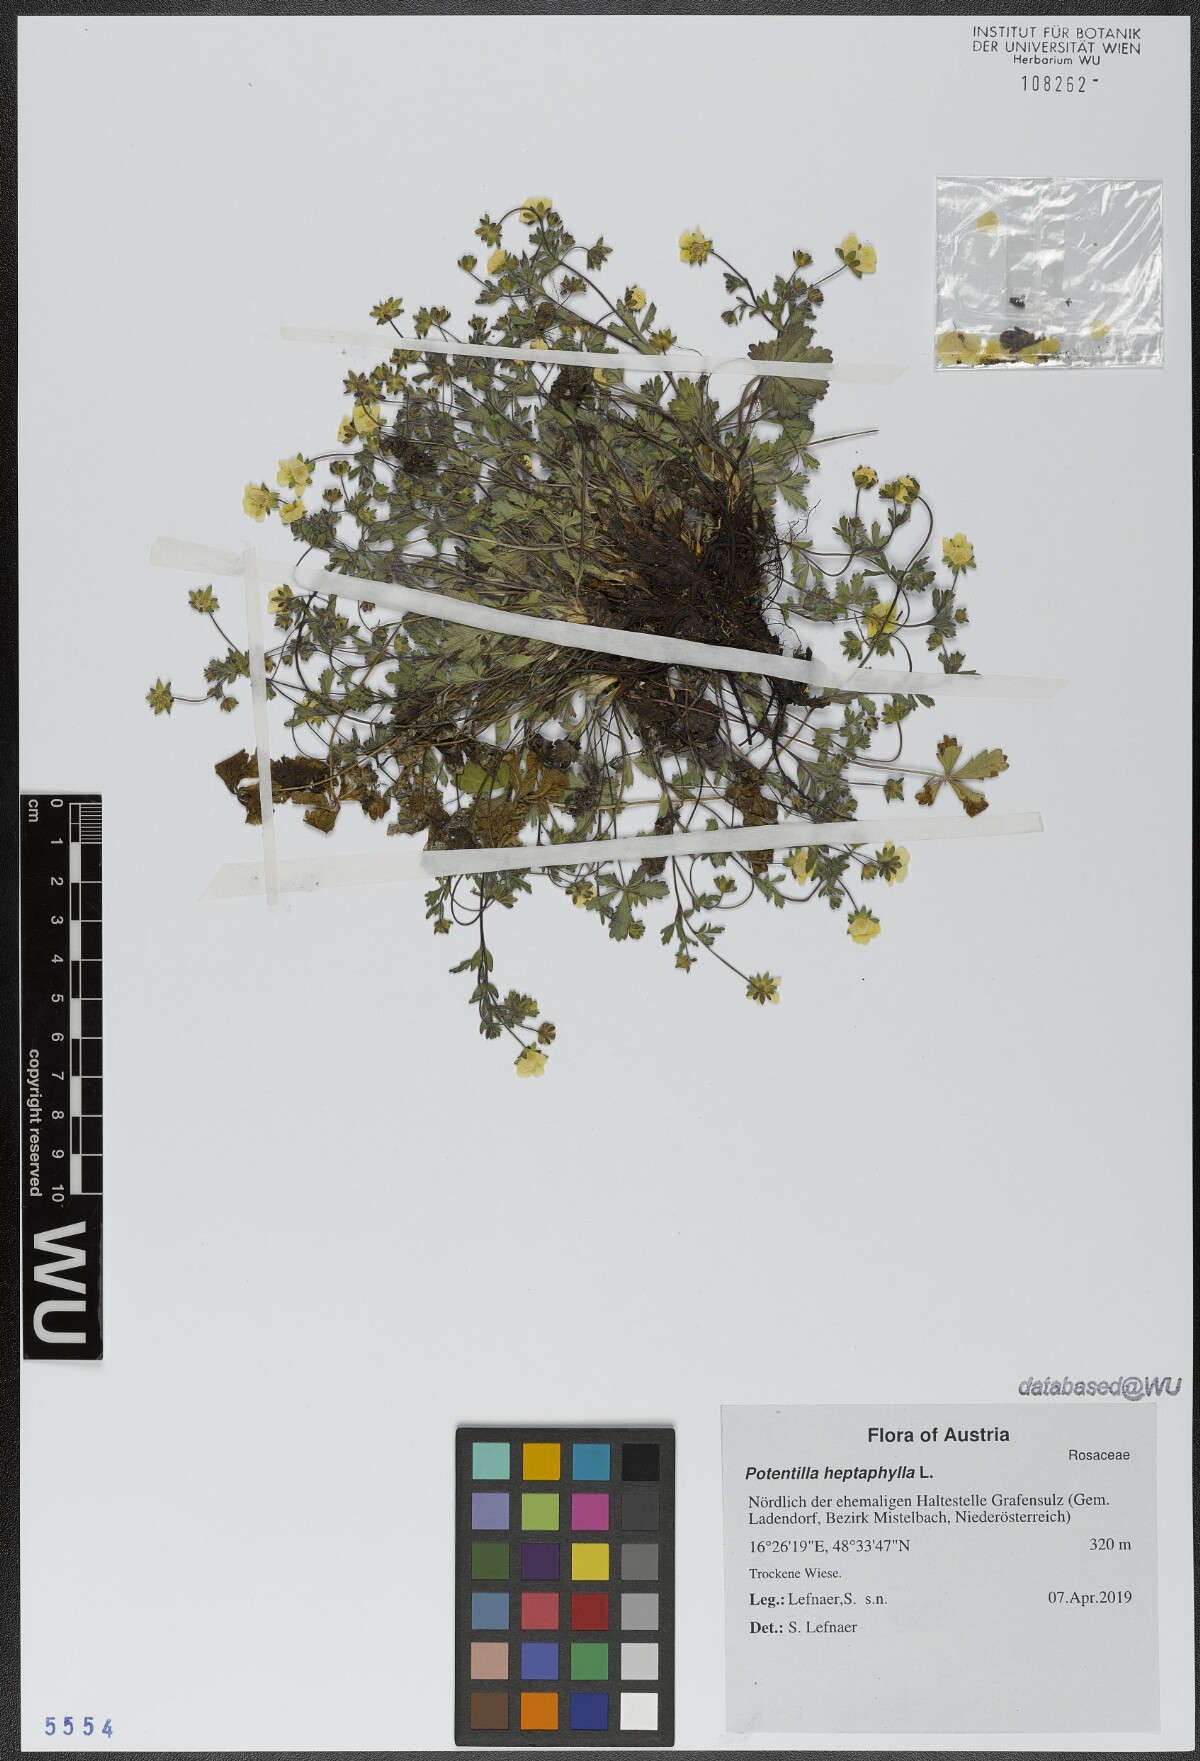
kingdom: Plantae
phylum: Tracheophyta
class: Magnoliopsida
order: Rosales
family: Rosaceae
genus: Potentilla
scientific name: Potentilla heptaphylla
